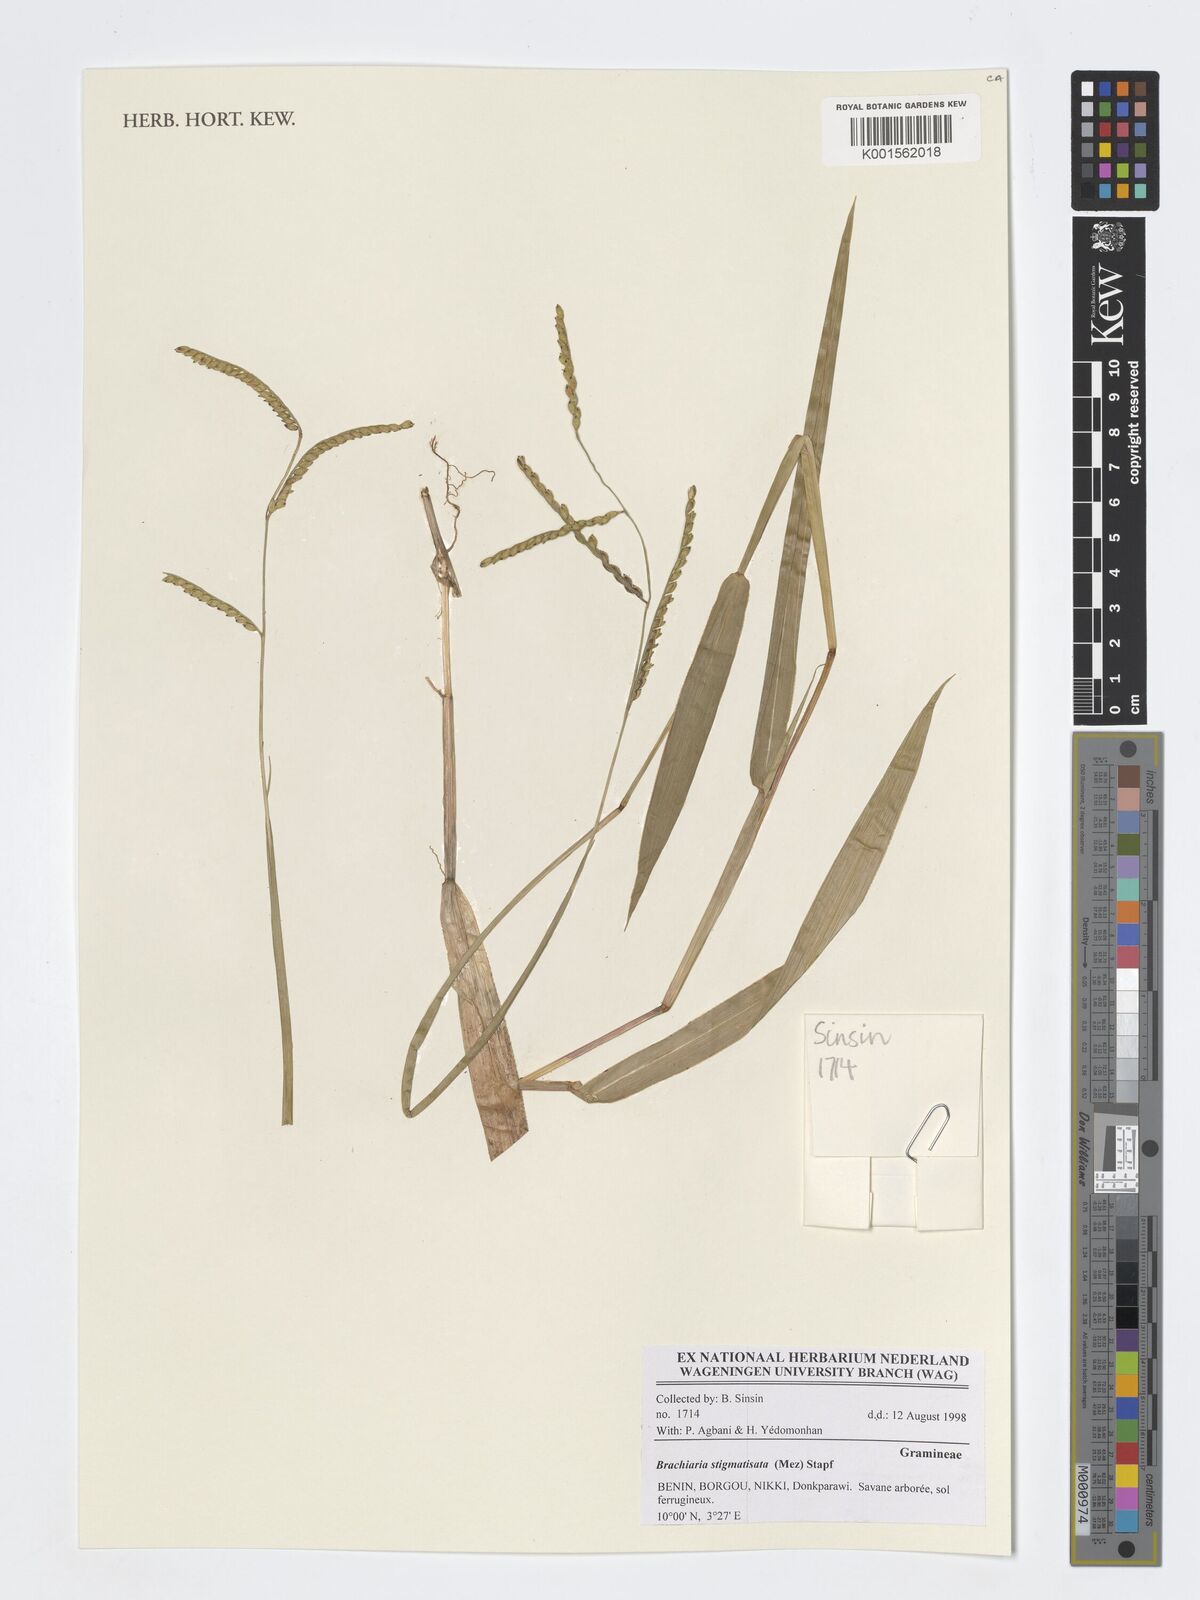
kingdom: Plantae
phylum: Tracheophyta
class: Liliopsida
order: Poales
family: Poaceae
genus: Urochloa
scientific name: Urochloa stigmatisata
